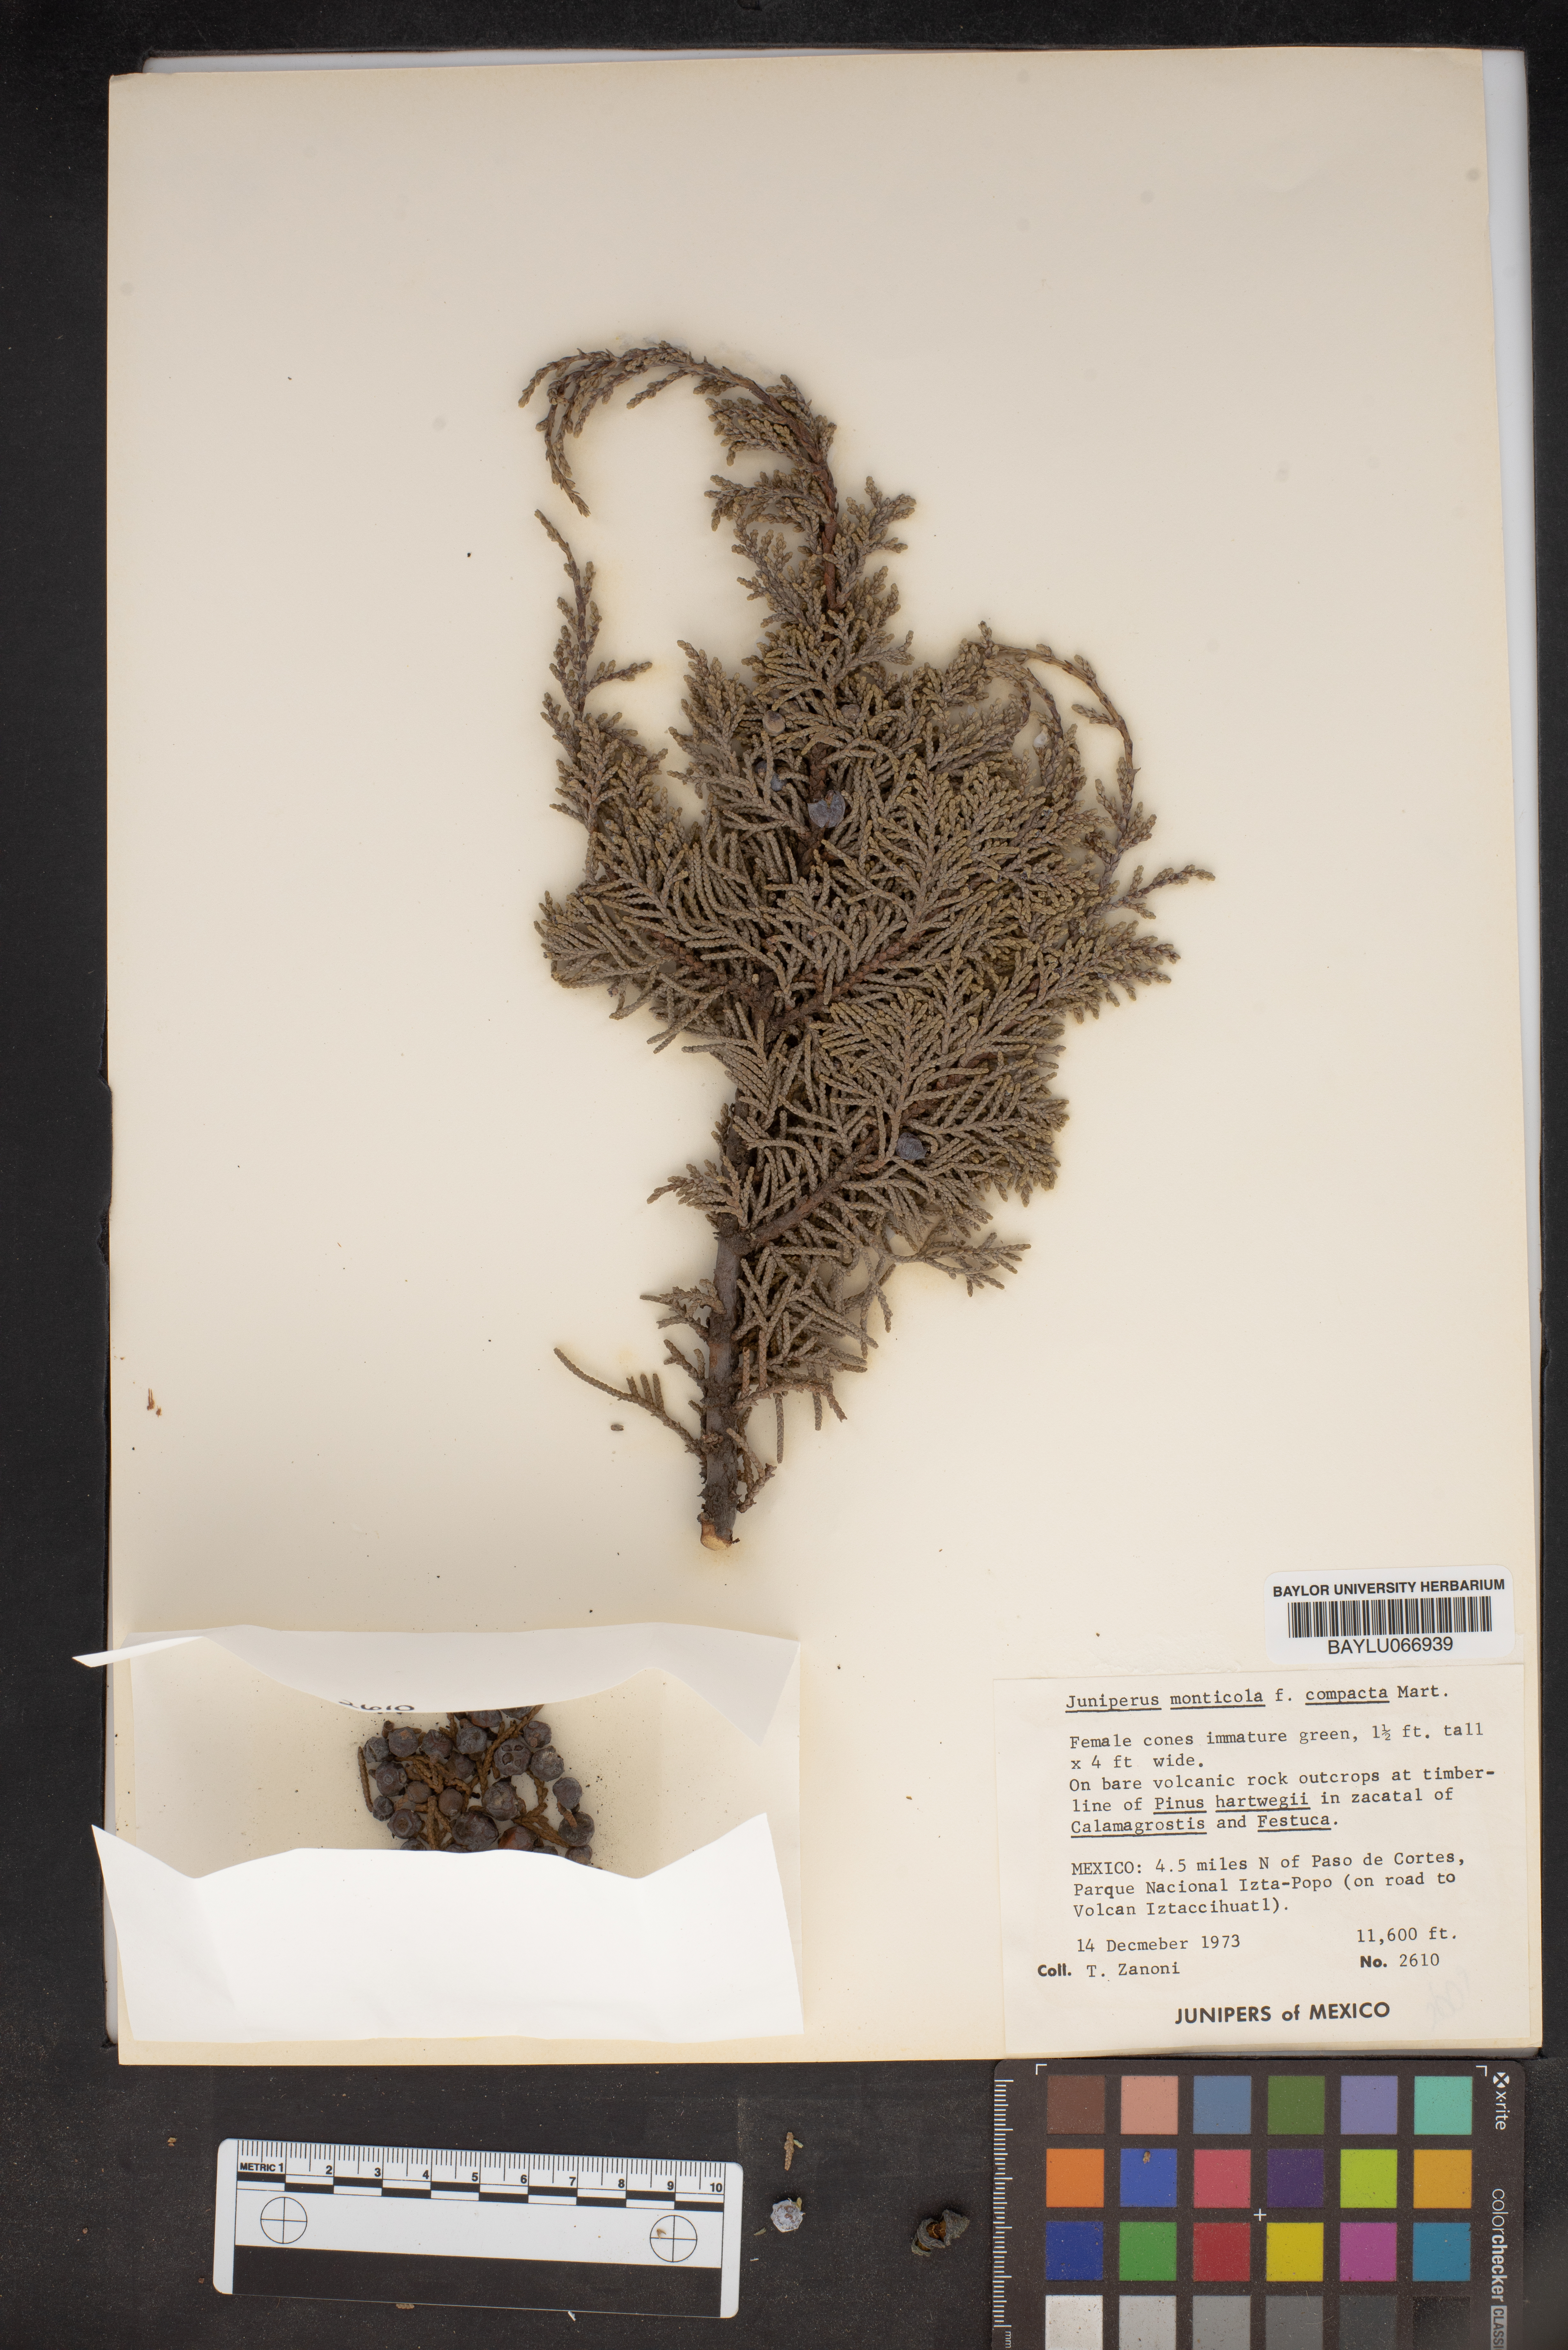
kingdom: Plantae
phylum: Tracheophyta
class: Pinopsida
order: Pinales
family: Cupressaceae
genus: Juniperus
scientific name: Juniperus monticola
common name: Mexican juniper
